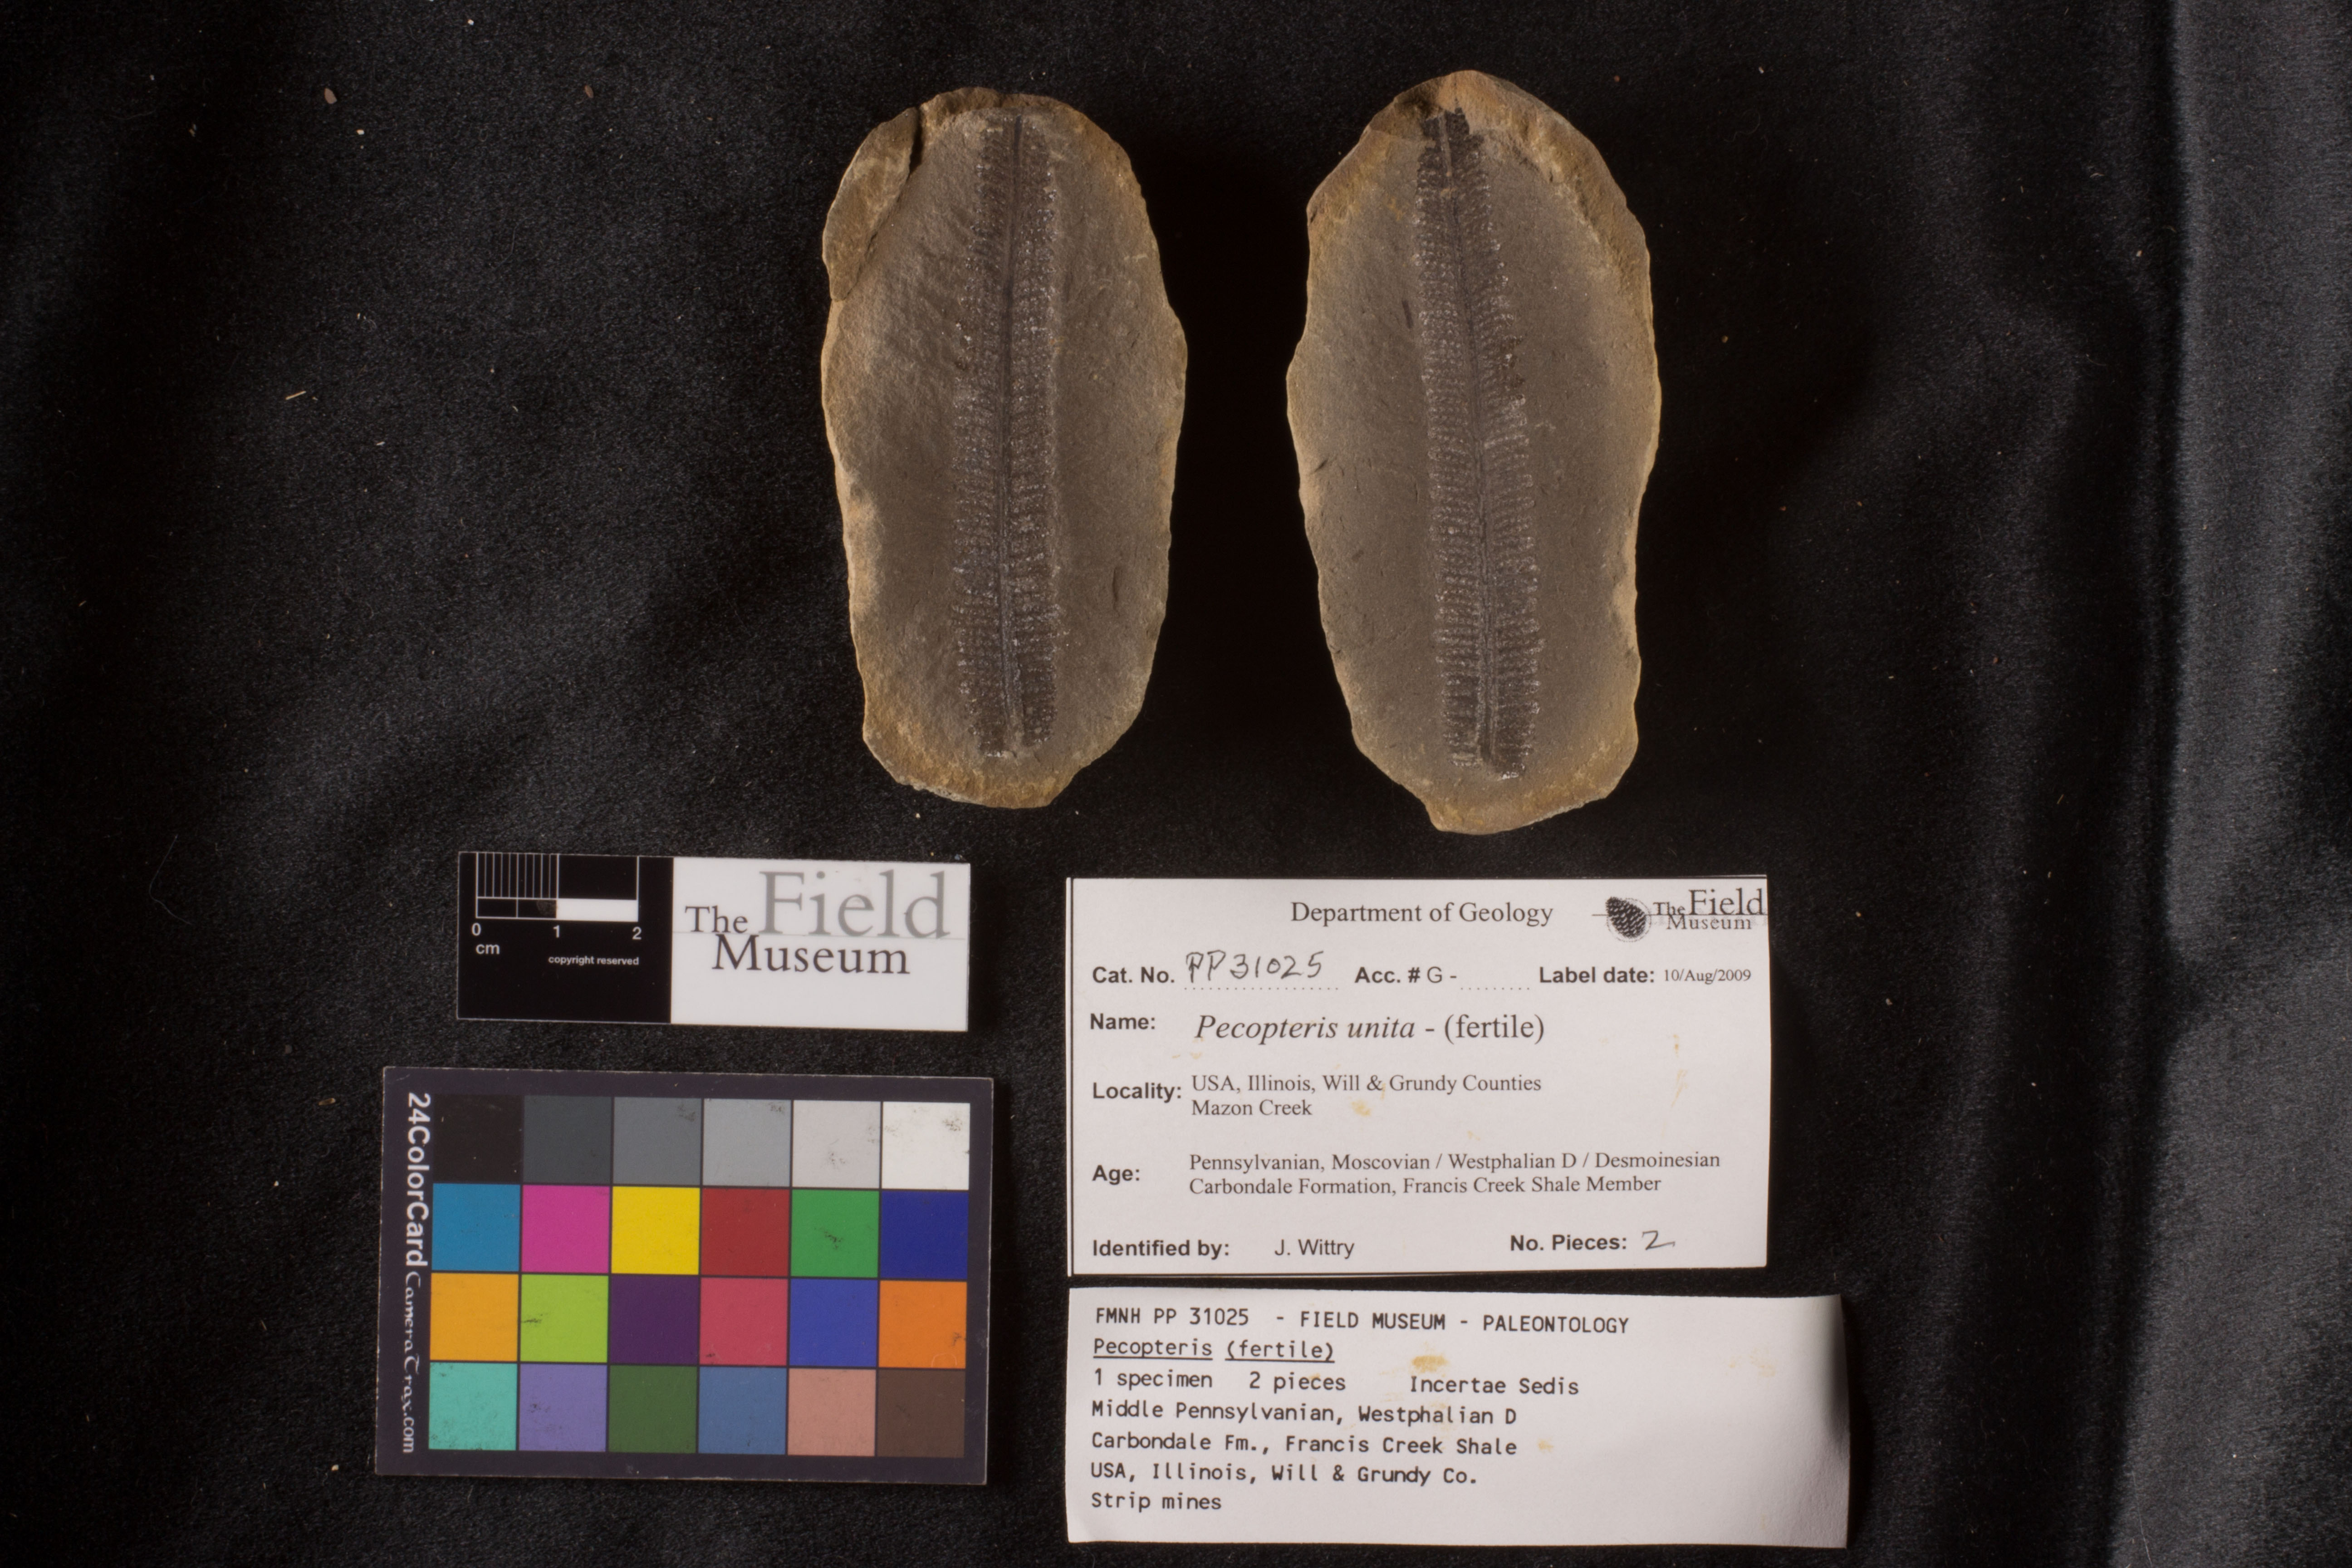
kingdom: Plantae
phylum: Tracheophyta
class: Polypodiopsida
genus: Diplazites
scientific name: Diplazites
